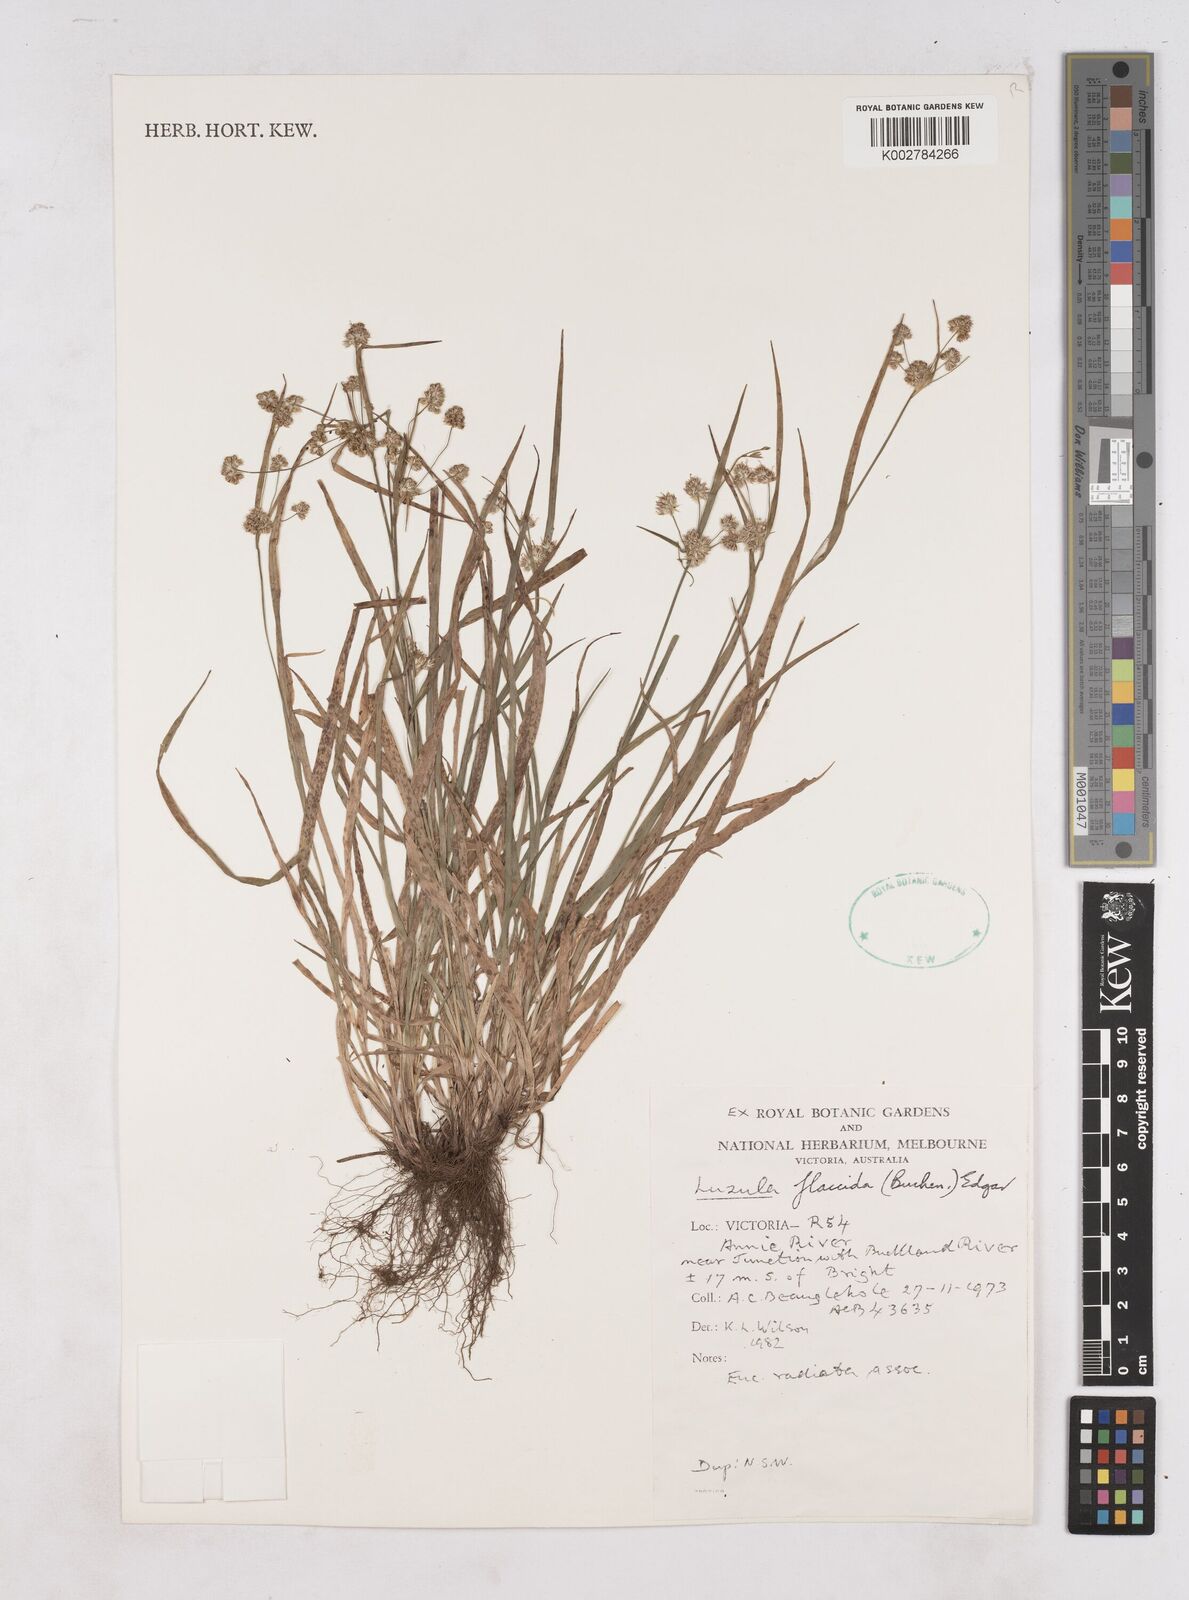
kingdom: Plantae
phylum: Tracheophyta
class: Liliopsida
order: Poales
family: Juncaceae
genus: Luzula
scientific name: Luzula flaccida
